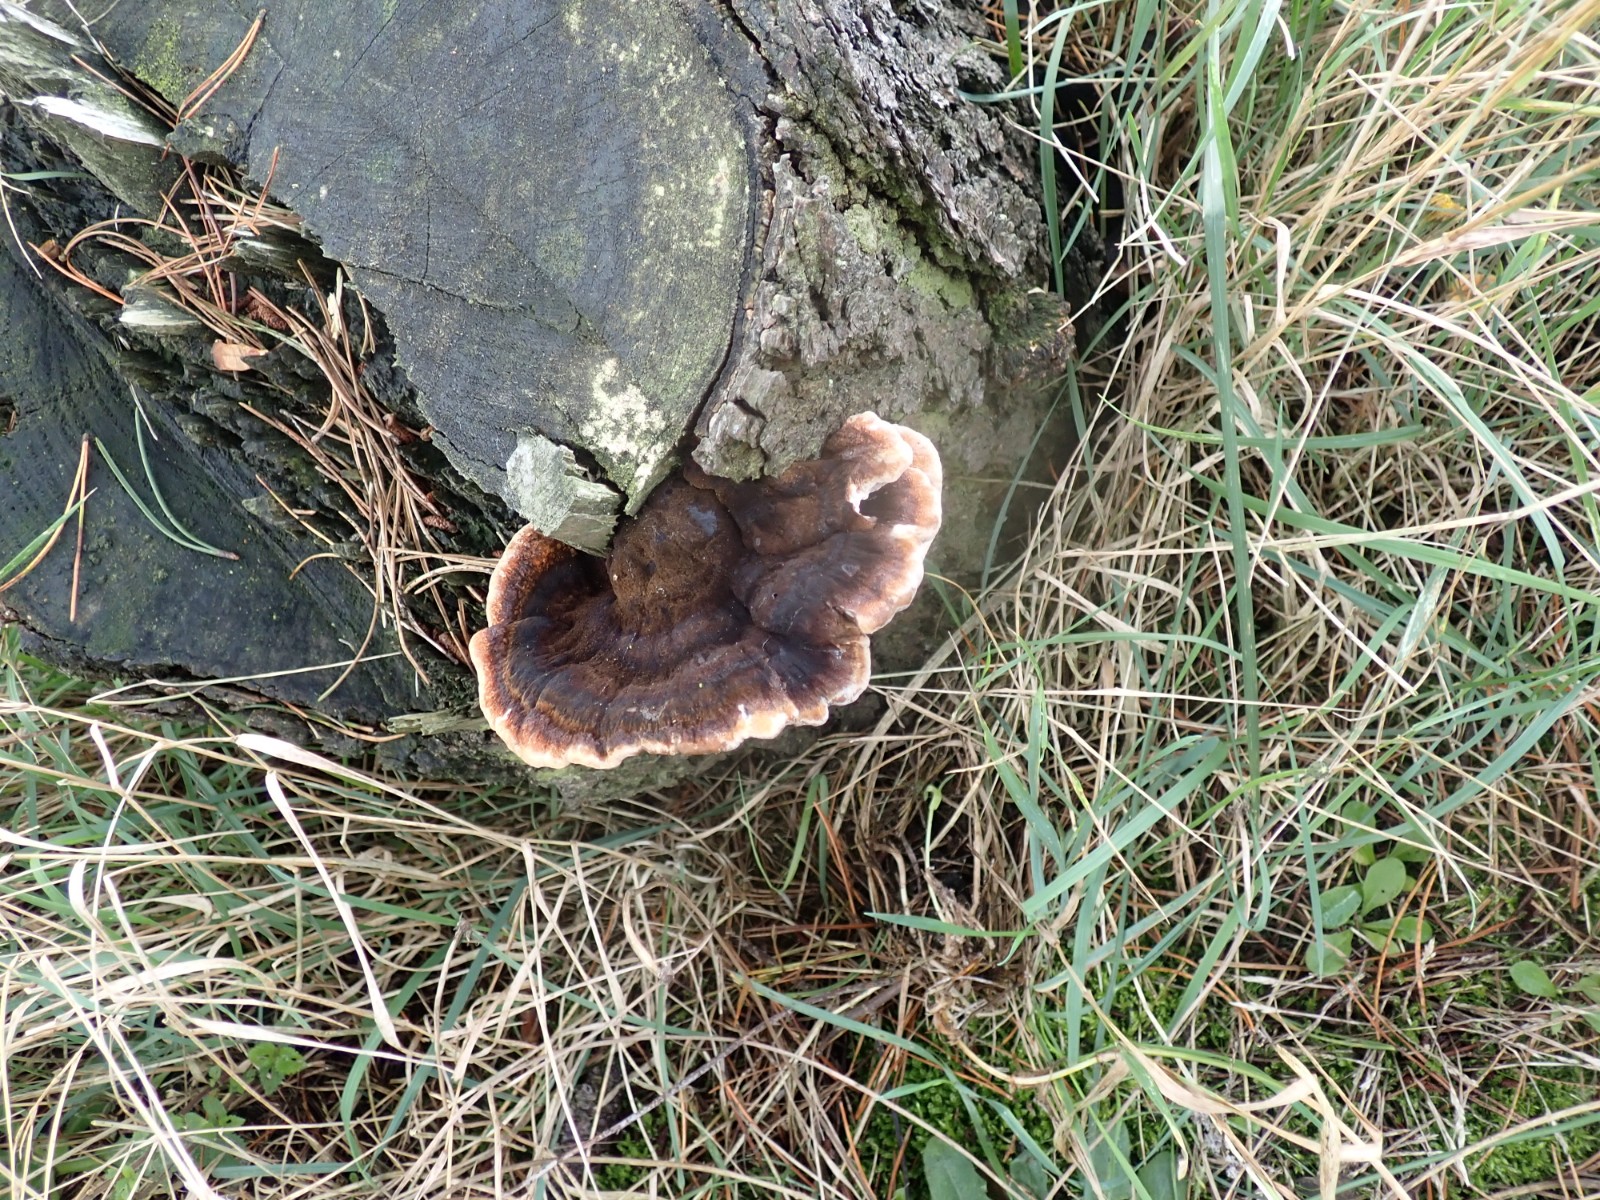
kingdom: Fungi
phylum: Basidiomycota
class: Agaricomycetes
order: Polyporales
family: Ischnodermataceae
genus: Ischnoderma
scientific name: Ischnoderma benzoinum
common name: gran-tjæreporesvamp
